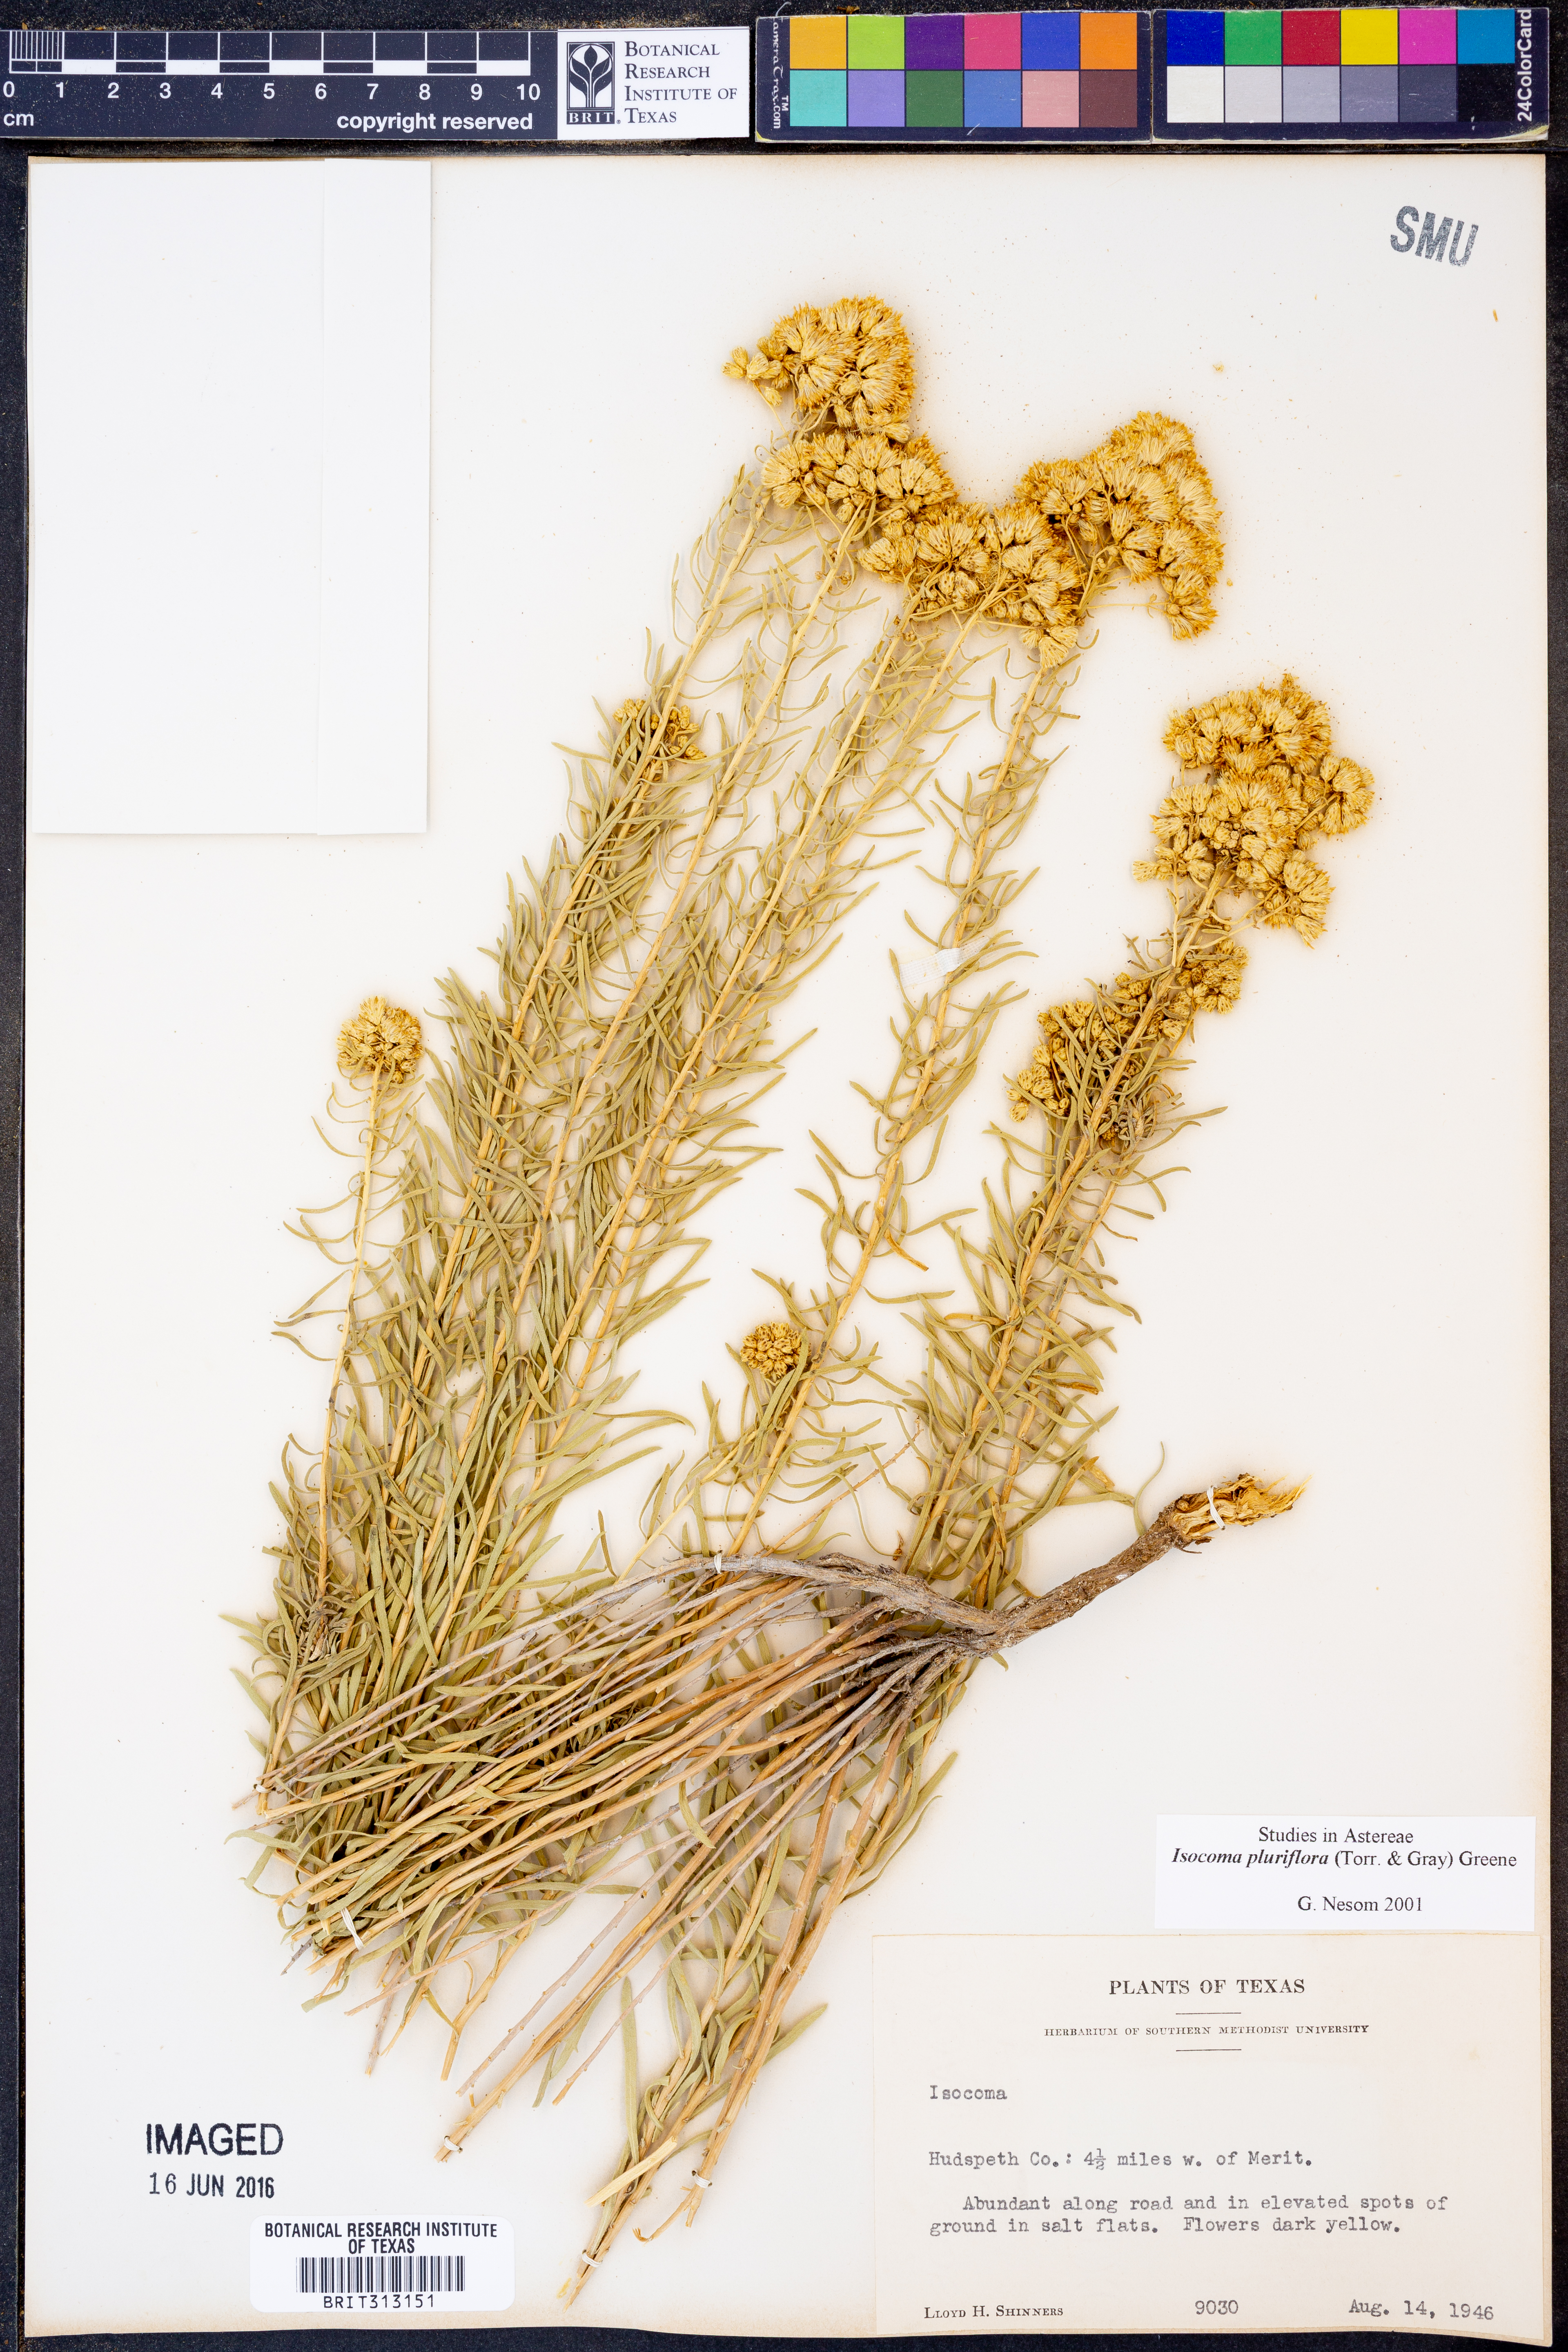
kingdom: Plantae
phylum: Tracheophyta
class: Magnoliopsida
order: Asterales
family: Asteraceae
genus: Isocoma
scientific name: Isocoma pluriflora
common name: Southern jimmyweed
